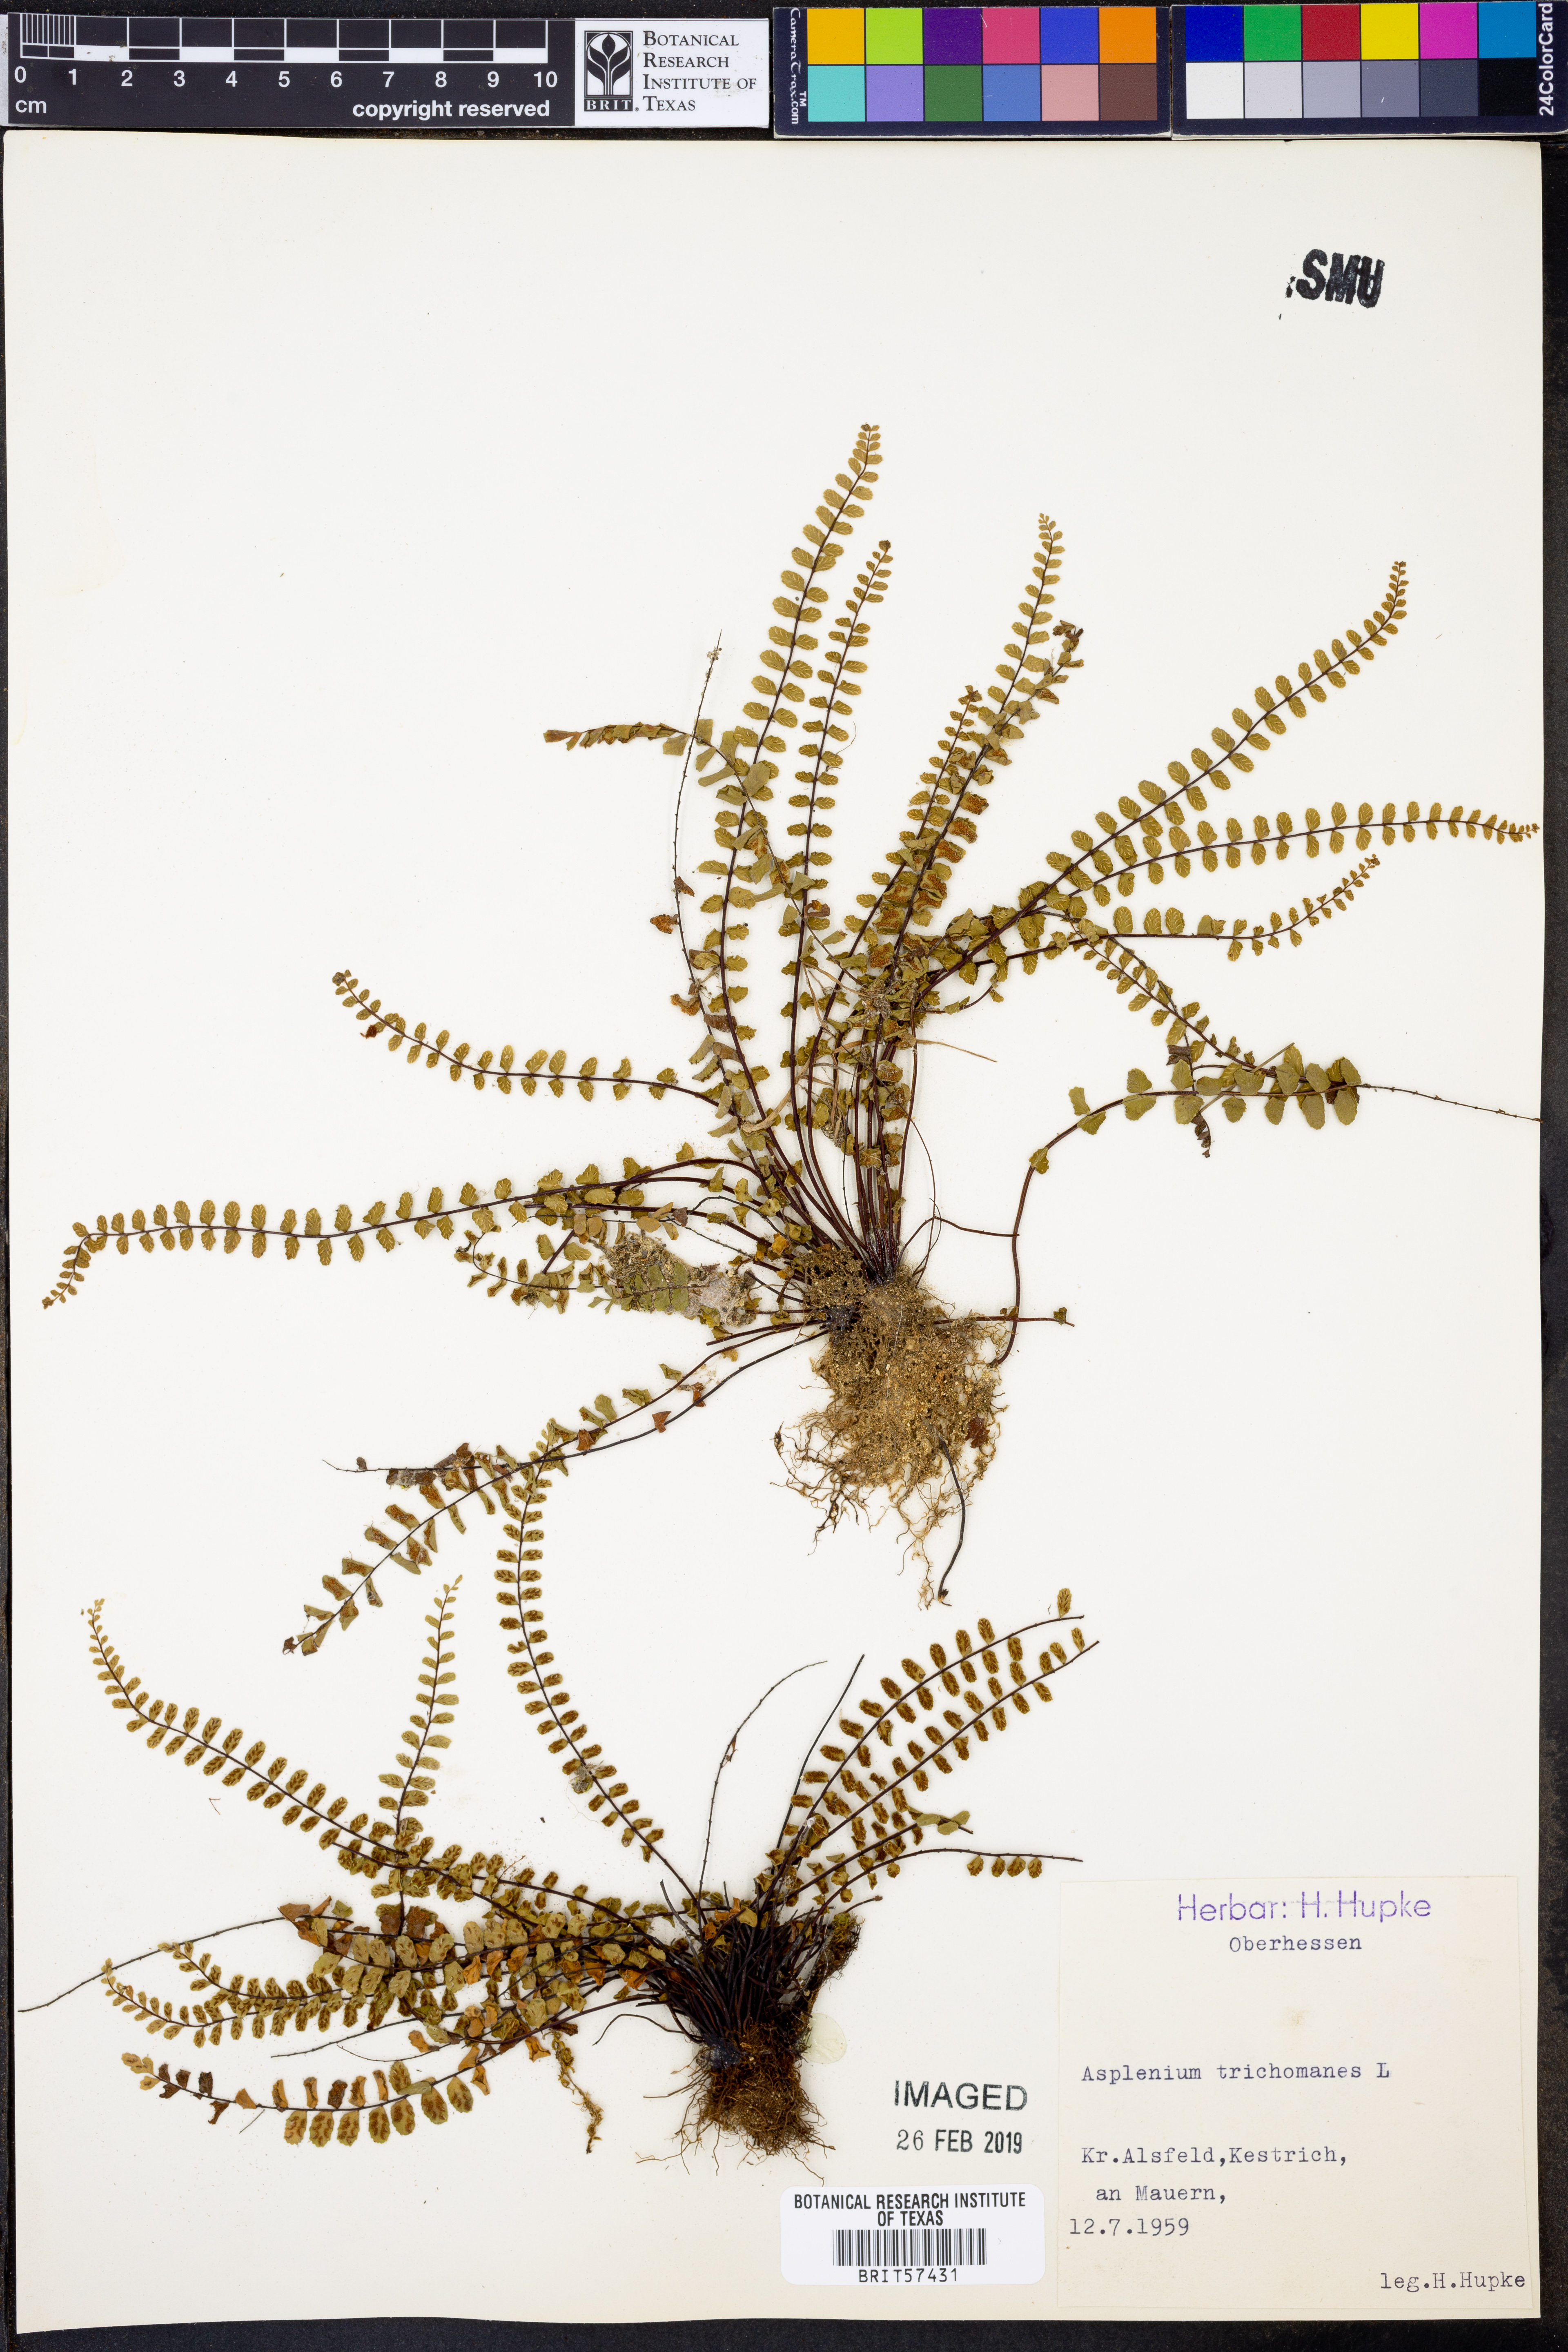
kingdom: Plantae
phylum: Tracheophyta
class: Polypodiopsida
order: Polypodiales
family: Aspleniaceae
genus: Asplenium
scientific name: Asplenium trichomanes
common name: Maidenhair spleenwort
